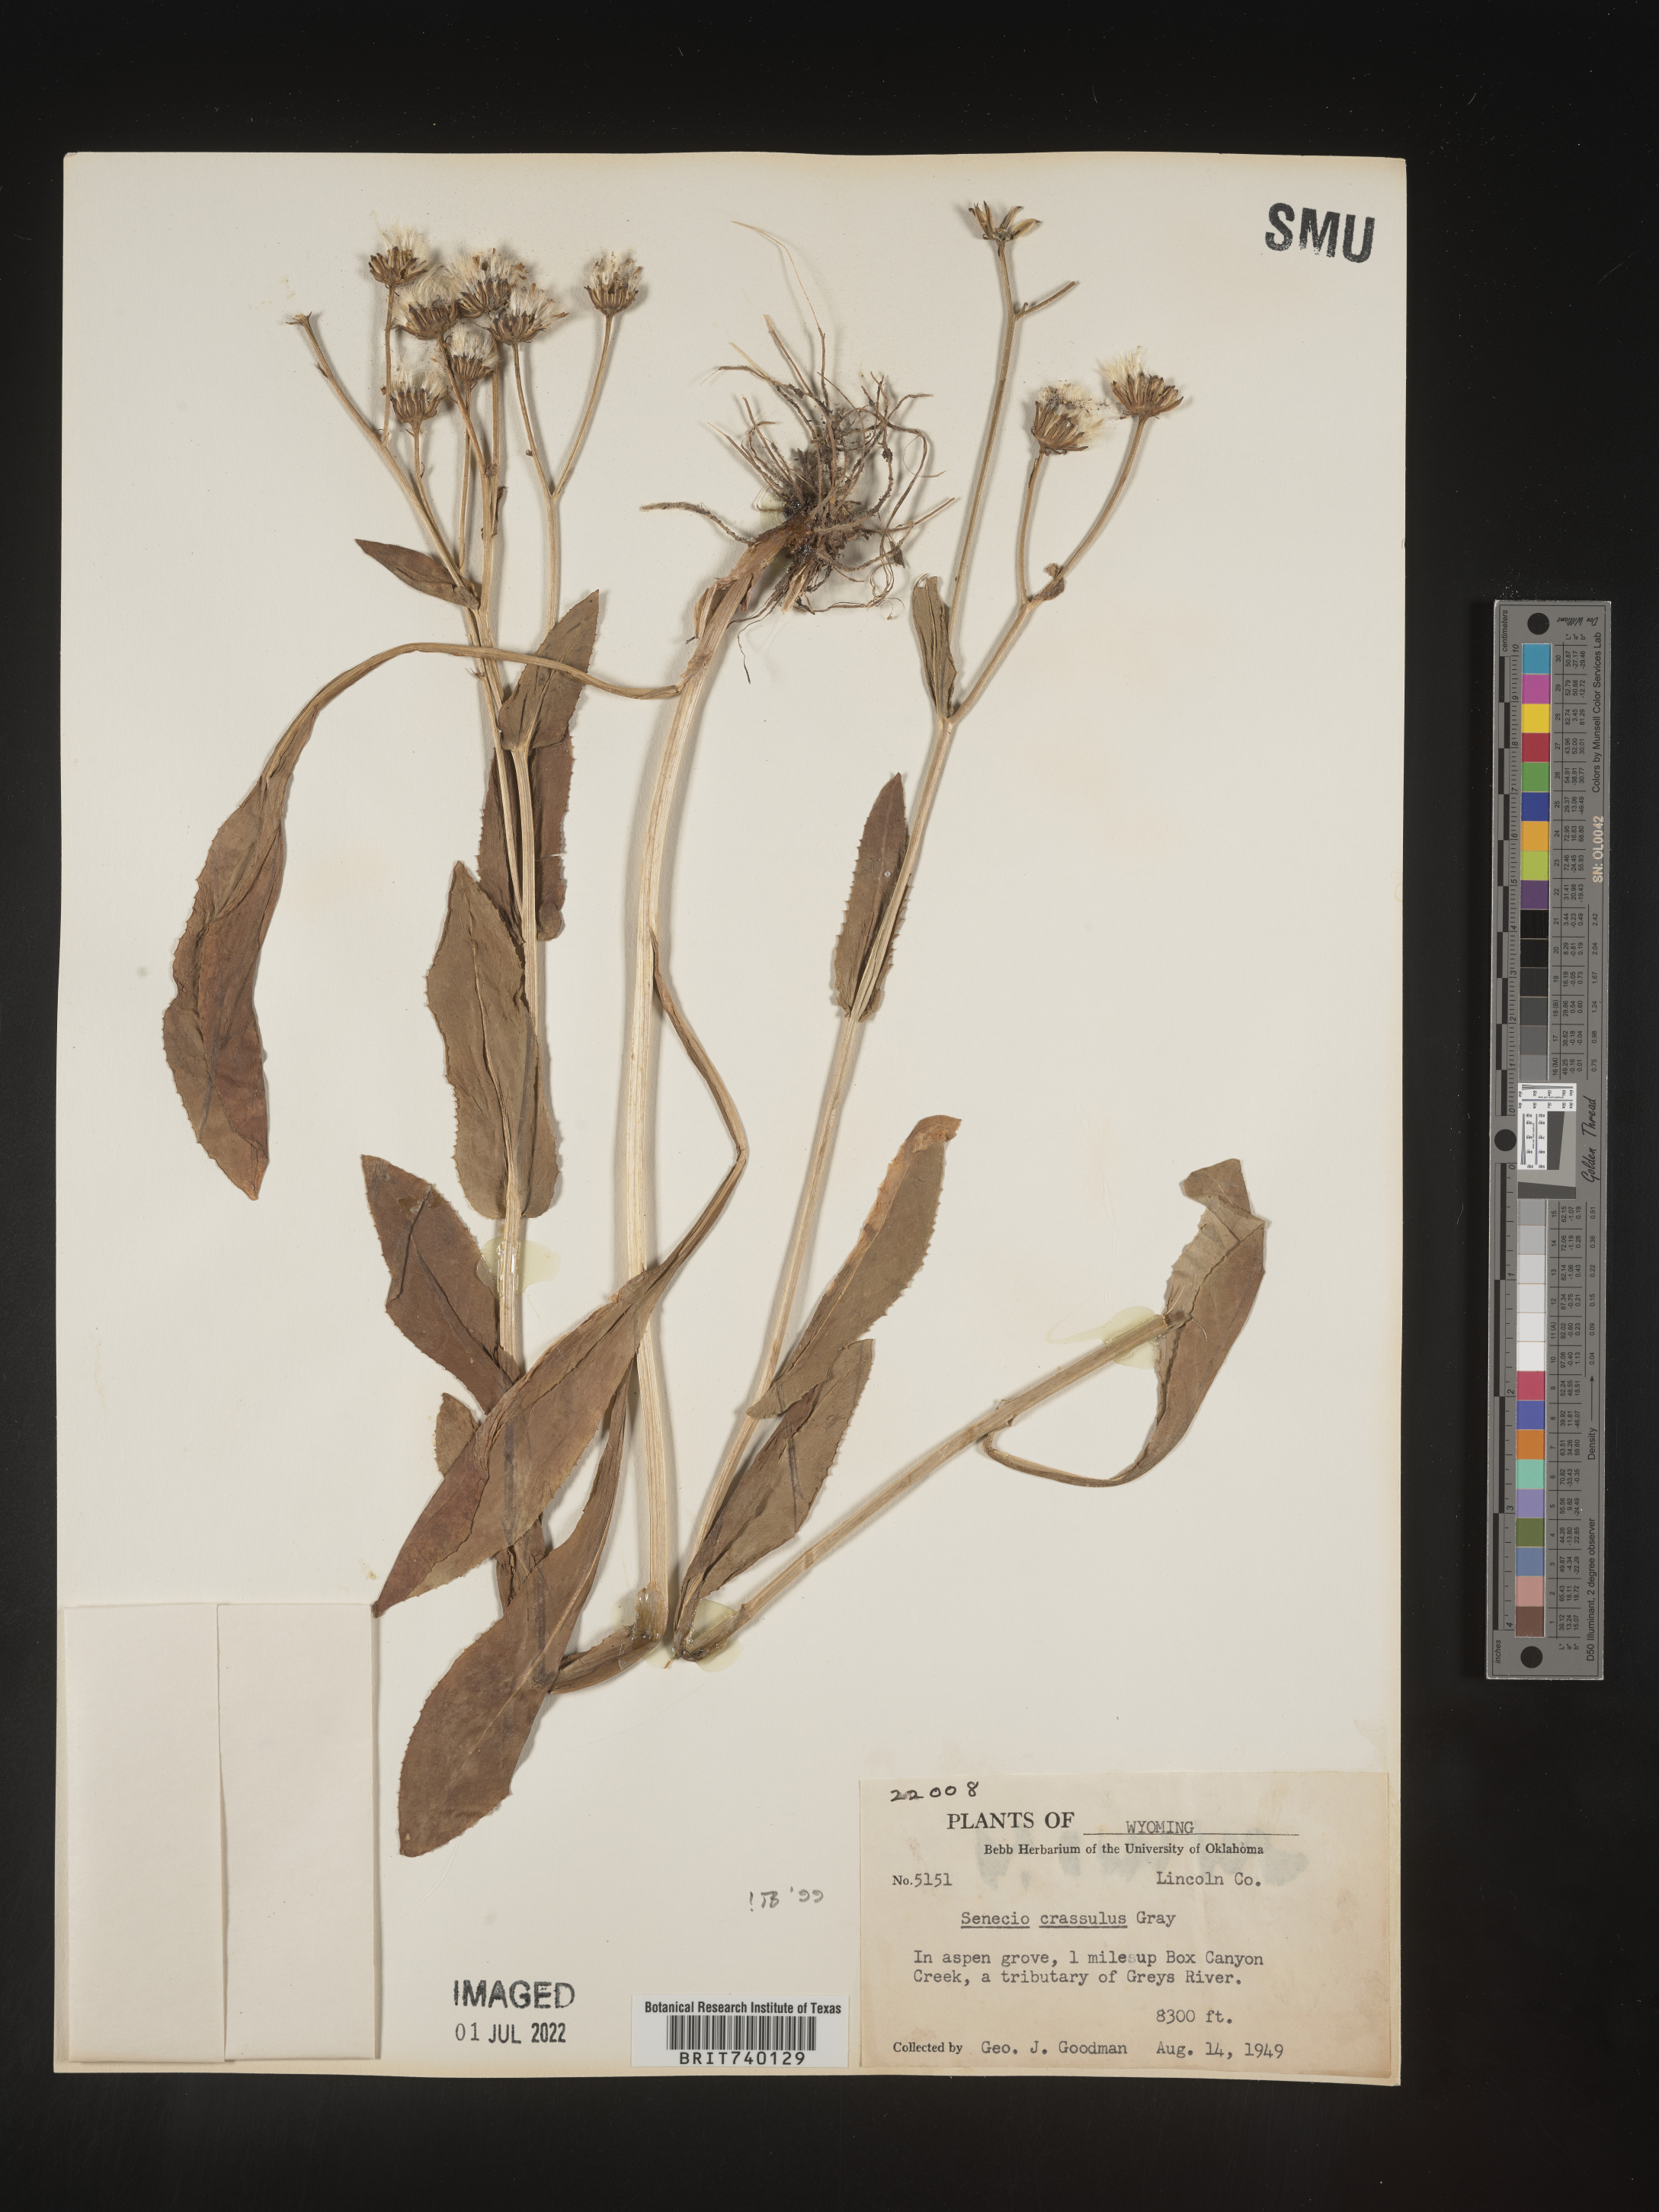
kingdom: Plantae
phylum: Tracheophyta
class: Magnoliopsida
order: Asterales
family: Asteraceae
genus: Senecio
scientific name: Senecio crassulus
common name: Mountain-meadow butterweed
